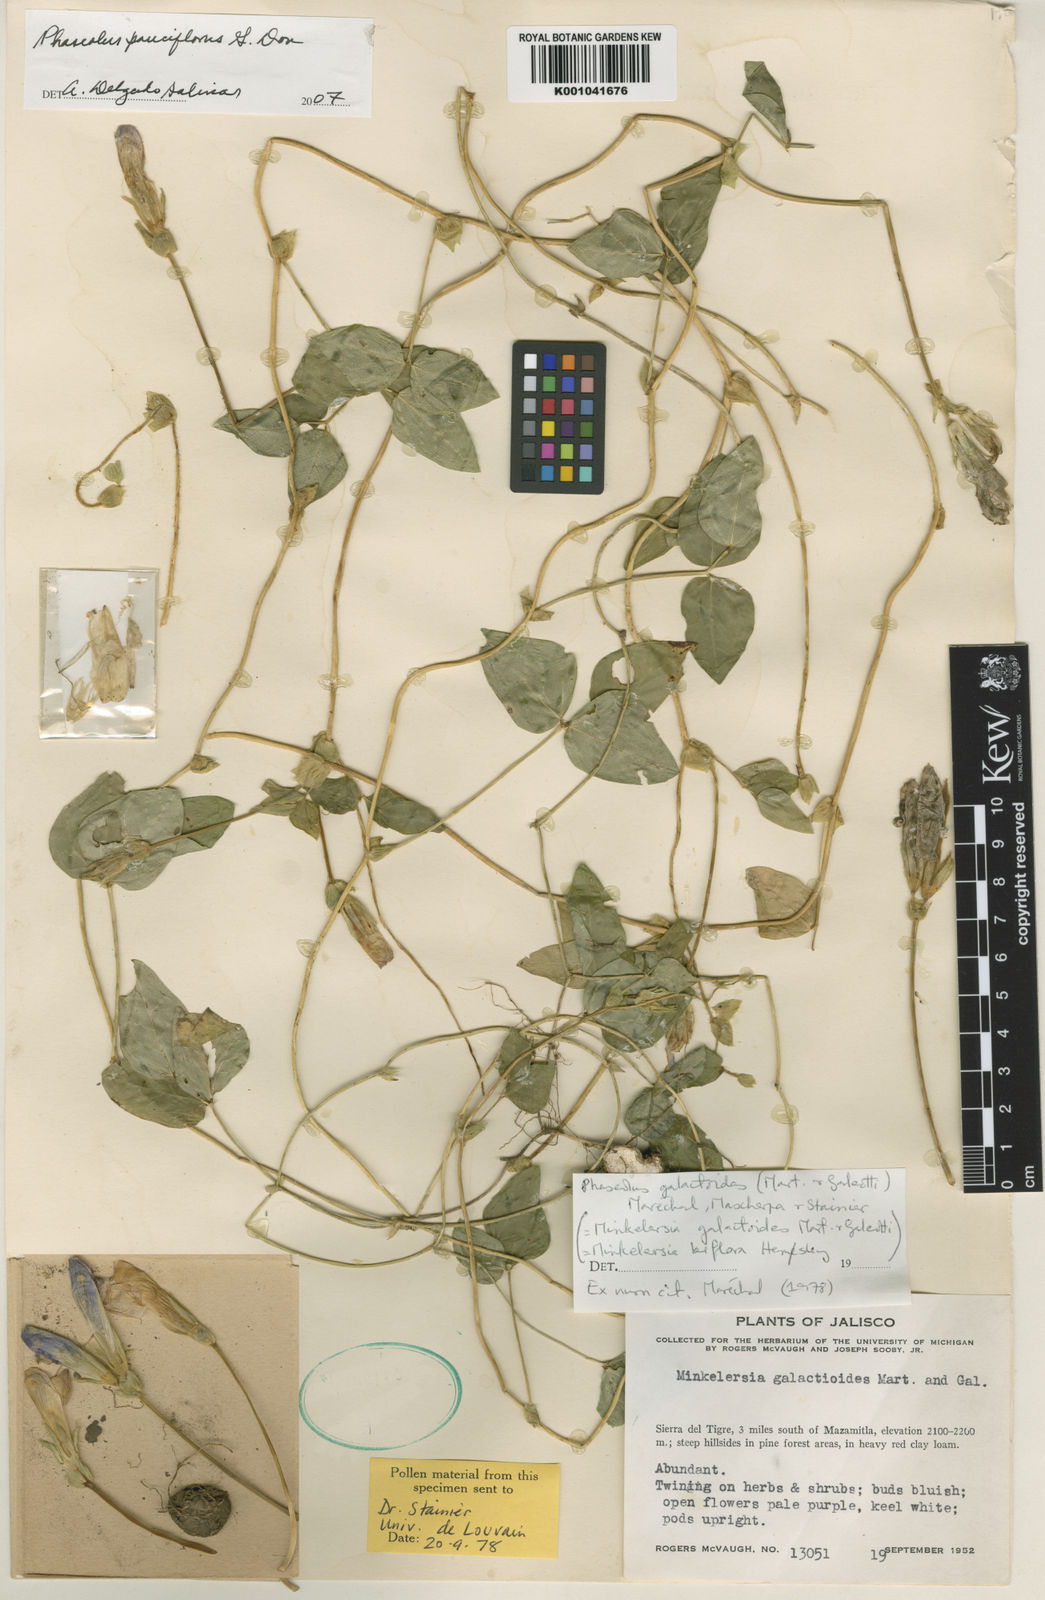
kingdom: Plantae
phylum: Tracheophyta
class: Magnoliopsida
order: Fabales
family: Fabaceae
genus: Phaseolus
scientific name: Phaseolus
